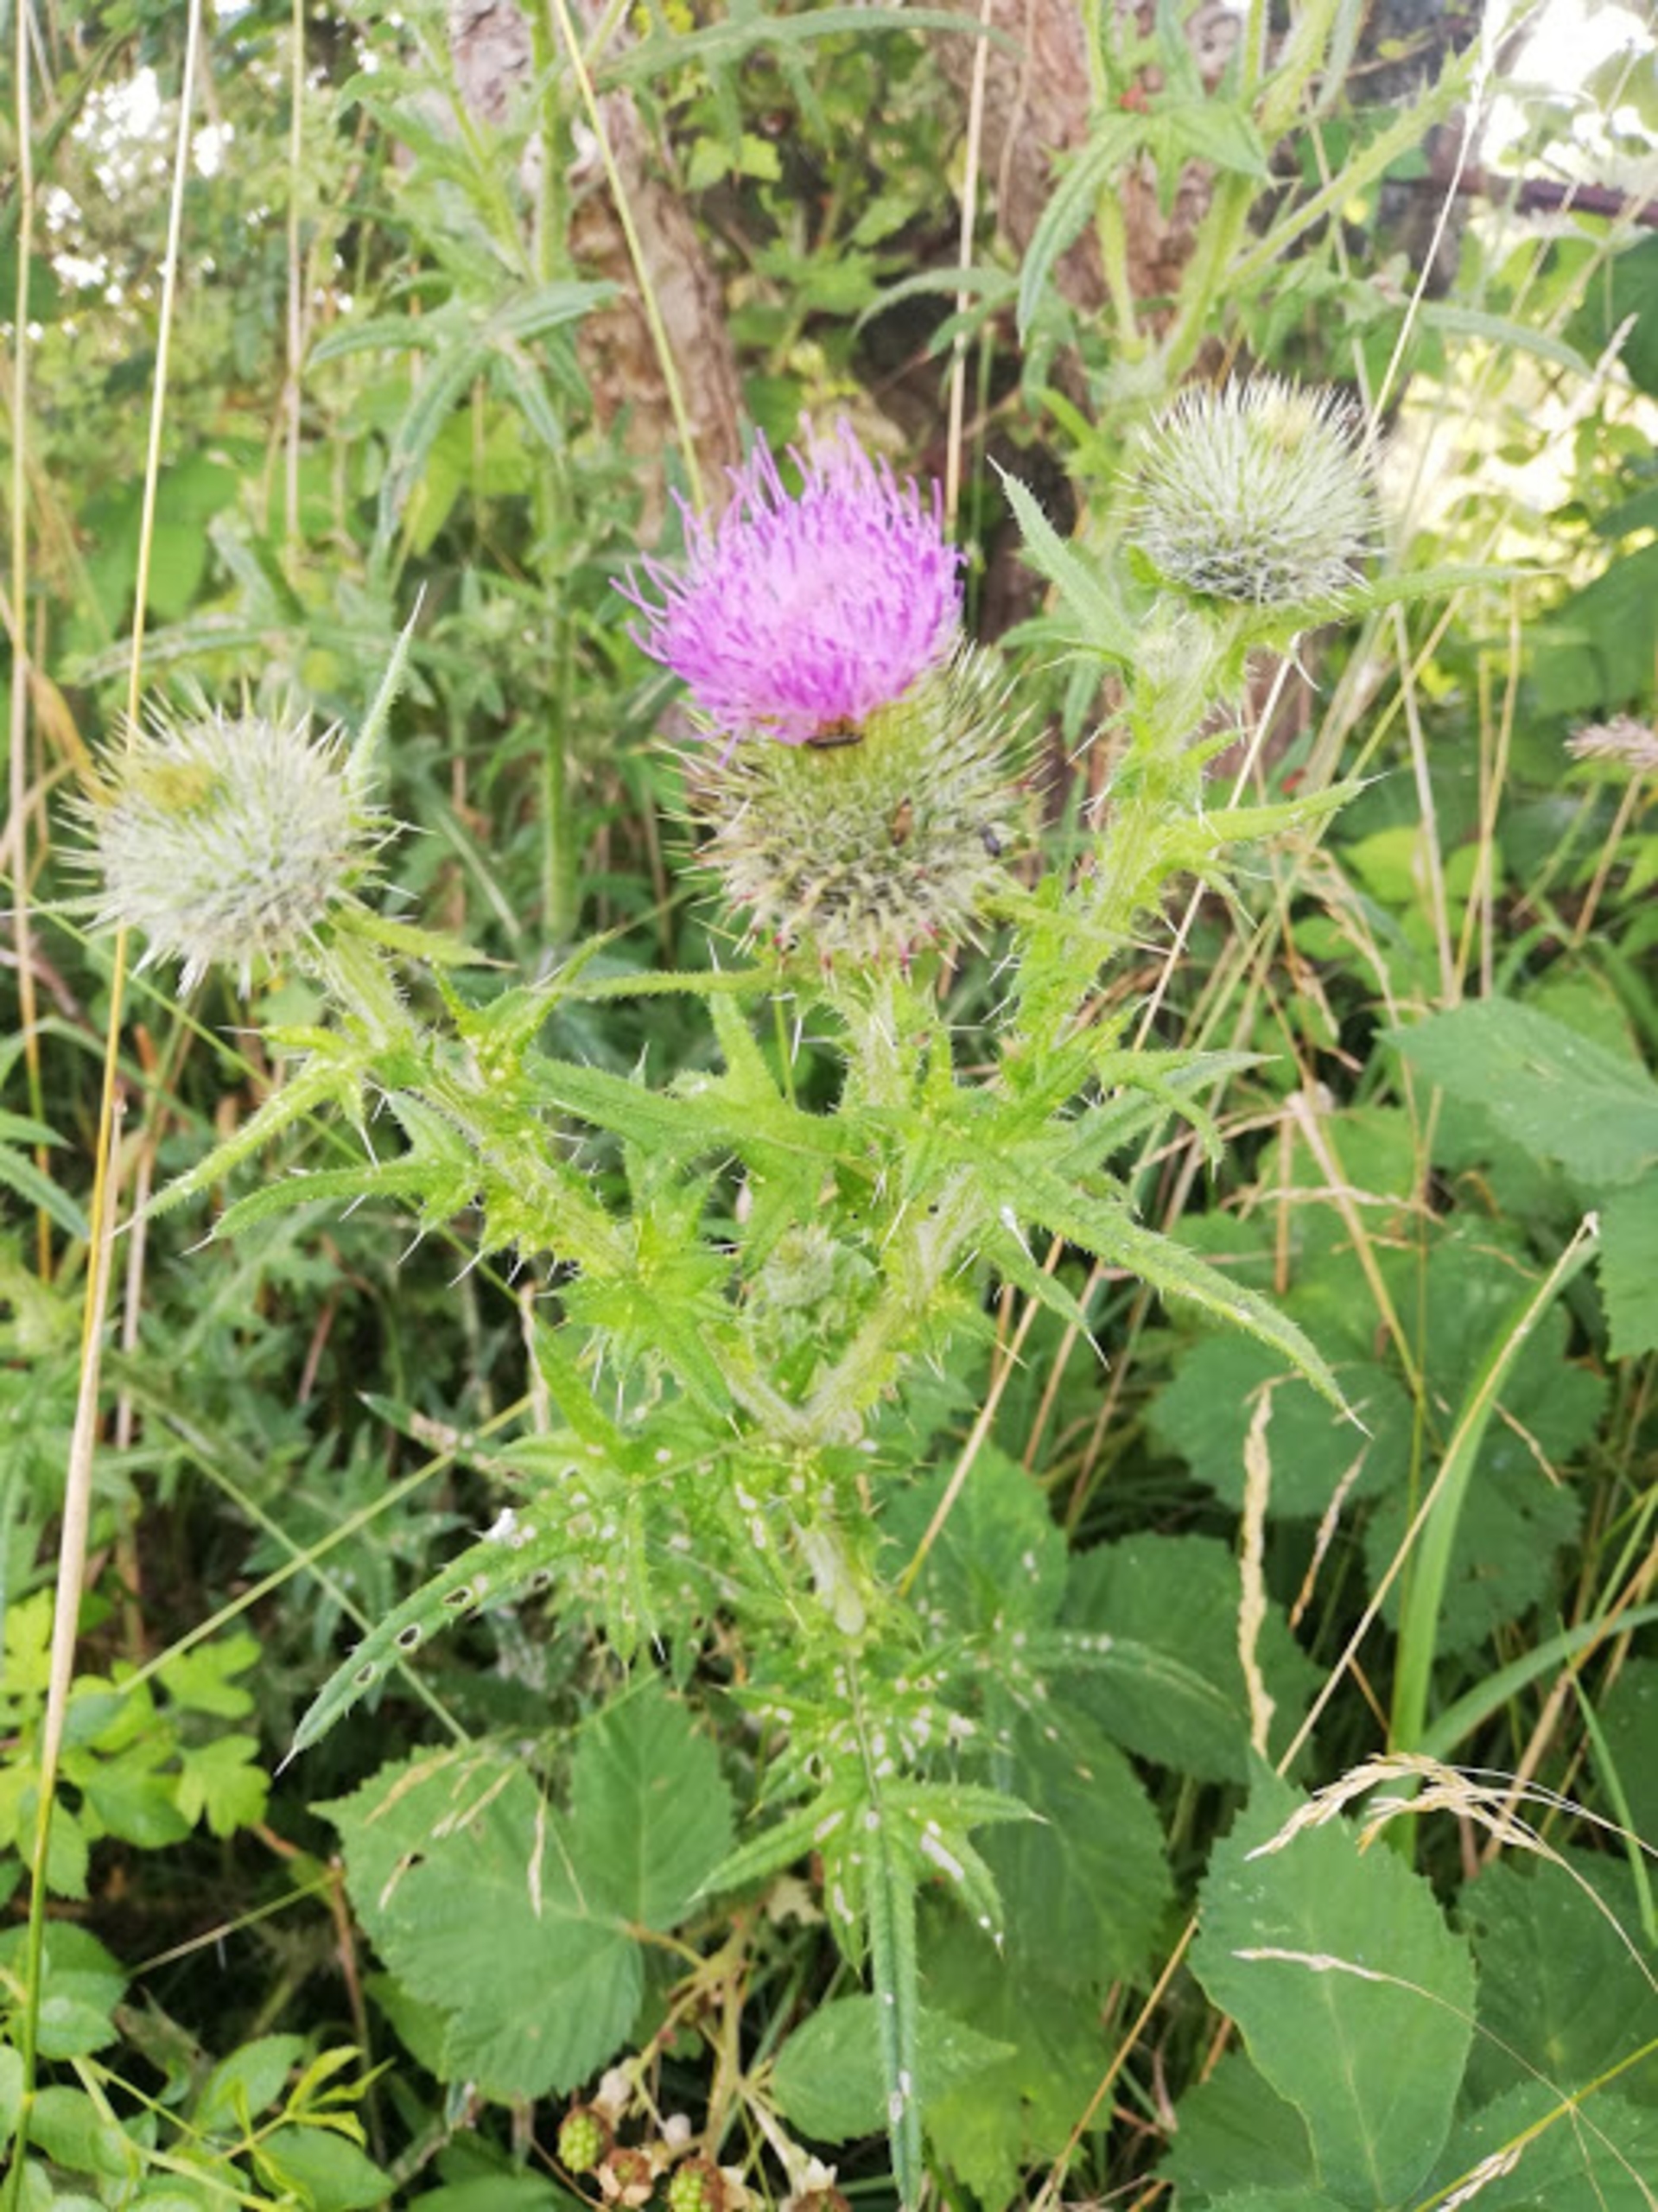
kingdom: Plantae
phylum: Tracheophyta
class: Magnoliopsida
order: Asterales
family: Asteraceae
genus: Cirsium
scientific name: Cirsium vulgare
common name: Horse-tidsel
